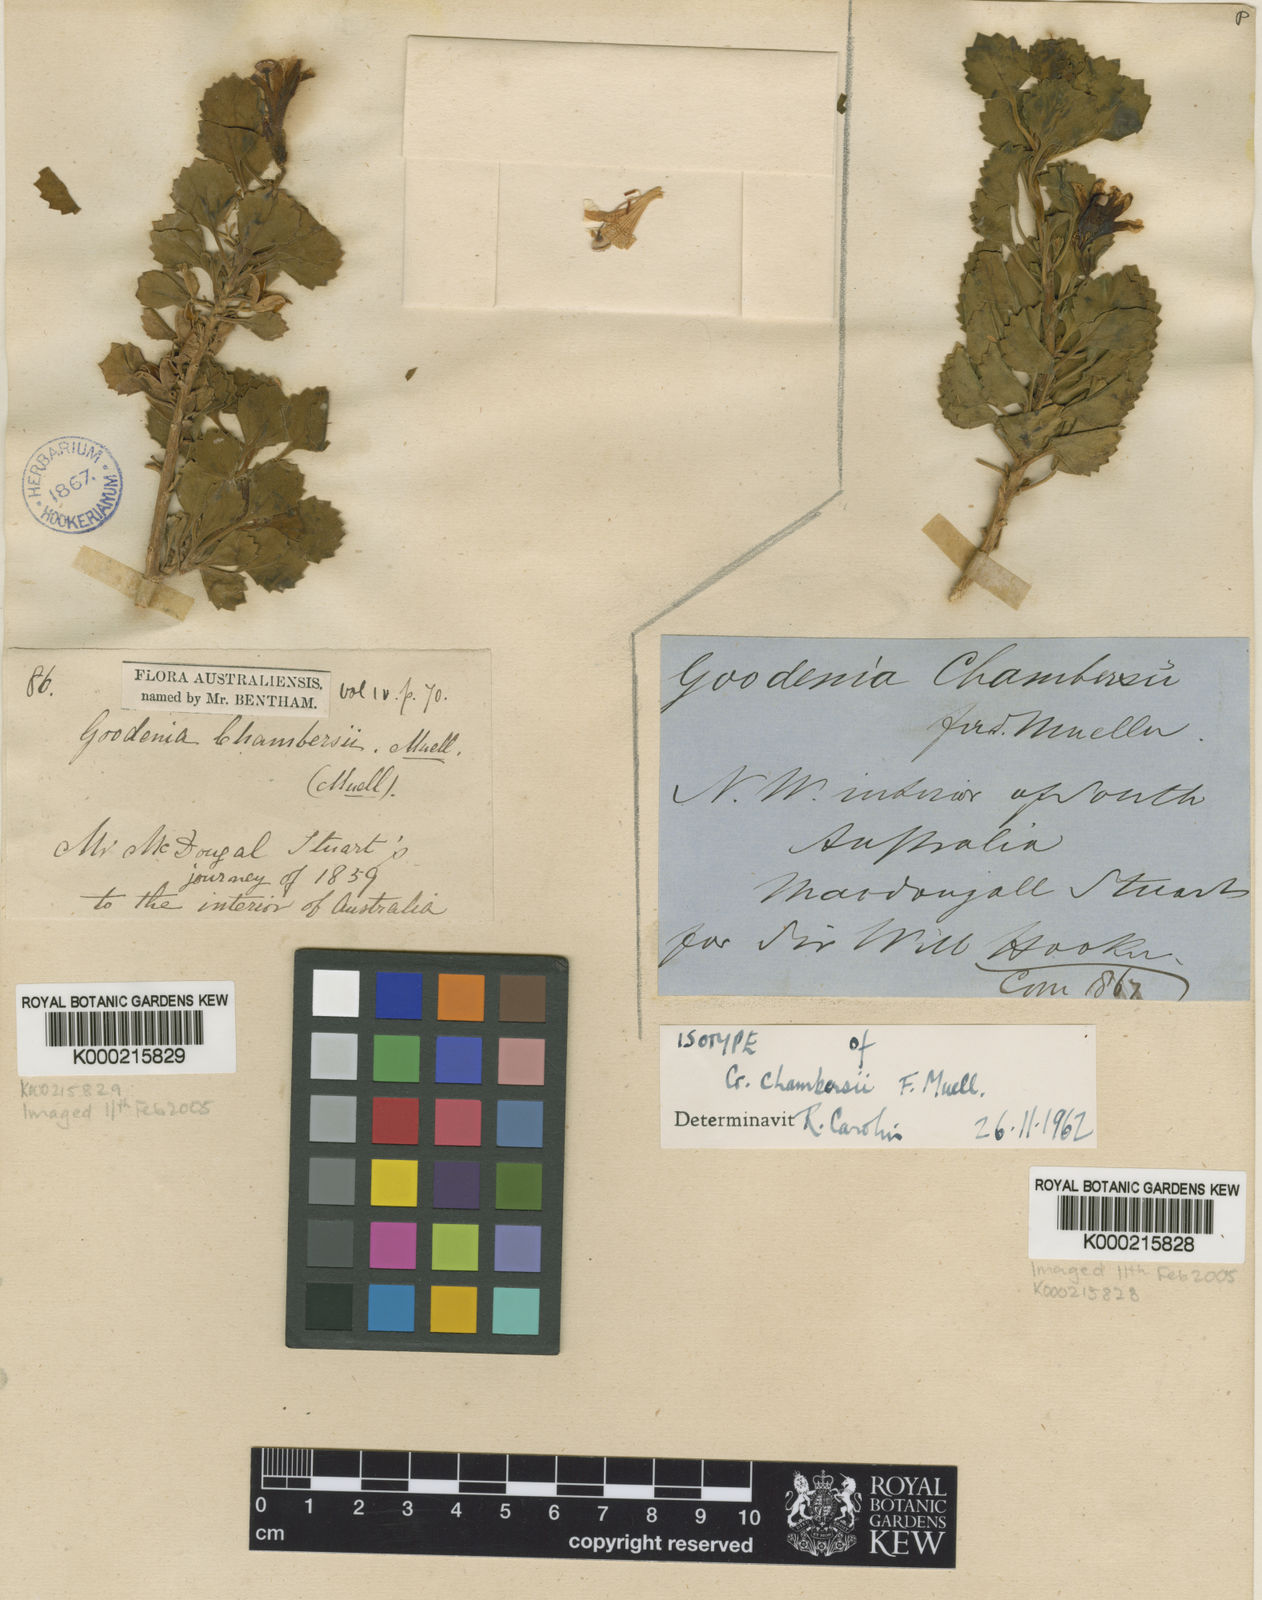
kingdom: Plantae
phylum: Tracheophyta
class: Magnoliopsida
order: Asterales
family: Goodeniaceae
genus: Goodenia
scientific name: Goodenia chambersii
